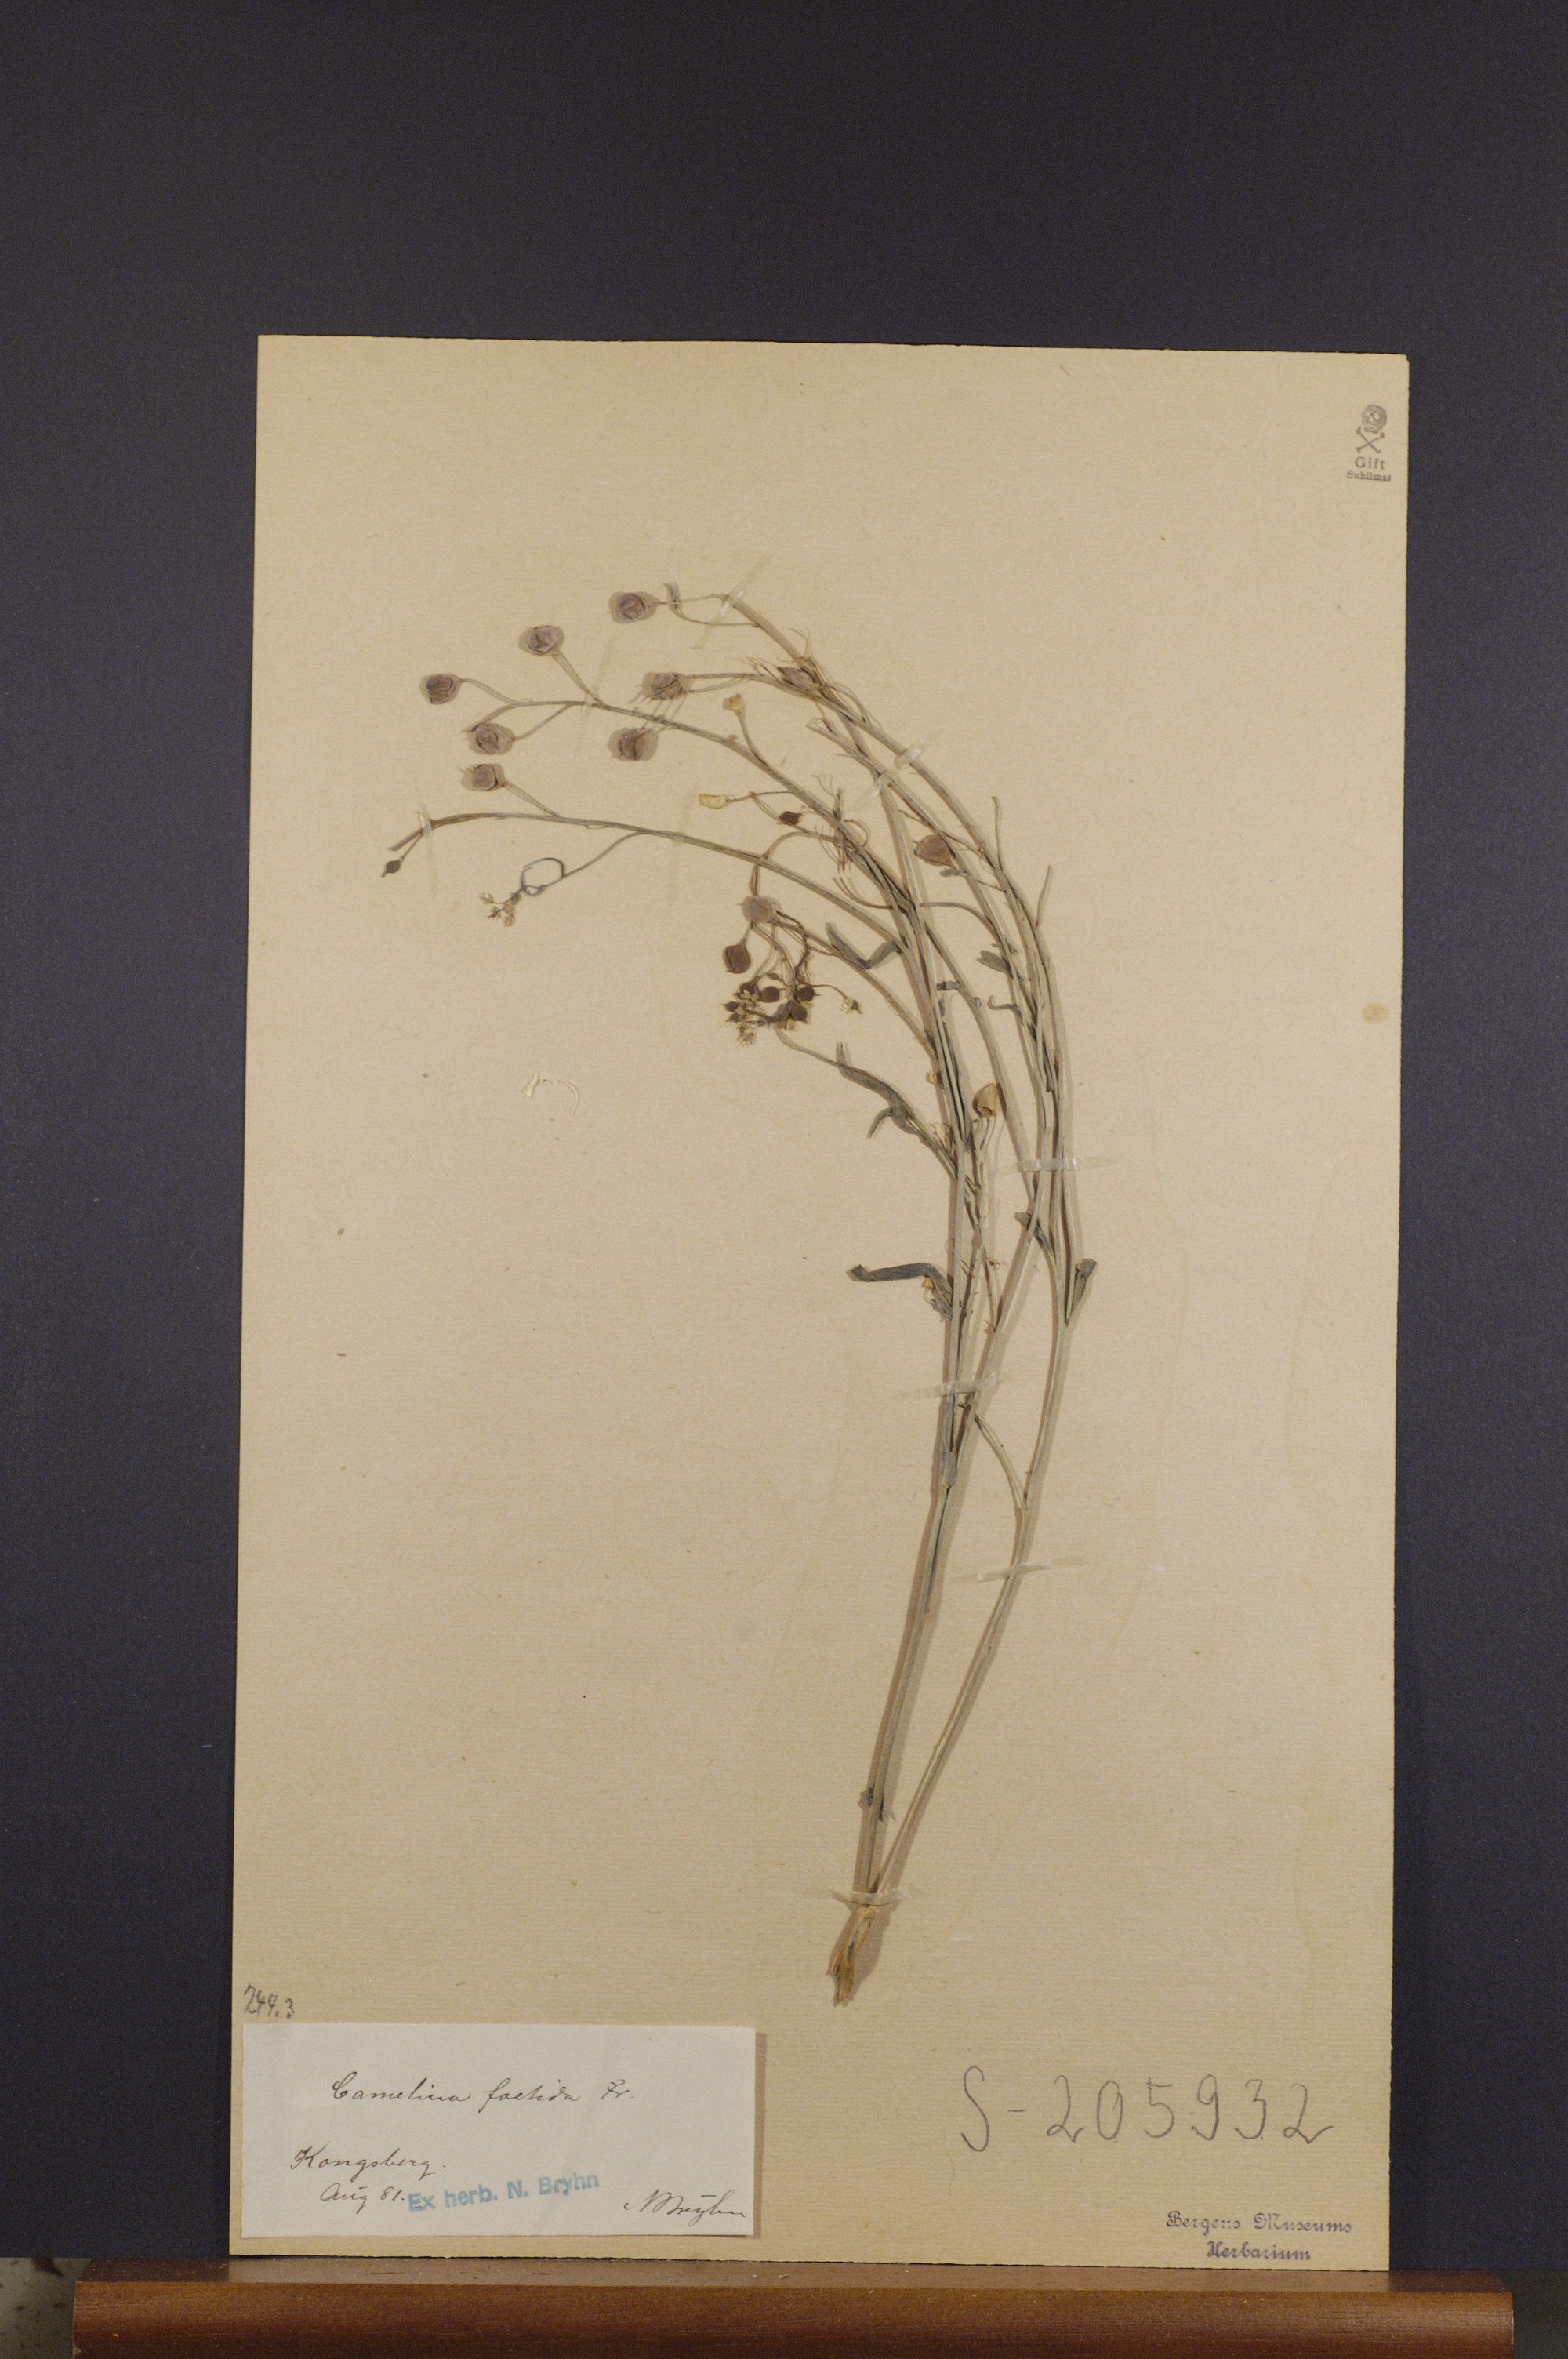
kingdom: Plantae
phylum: Tracheophyta
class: Magnoliopsida
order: Brassicales
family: Brassicaceae
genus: Camelina
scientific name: Camelina alyssum
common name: Gold-of-pleasure
